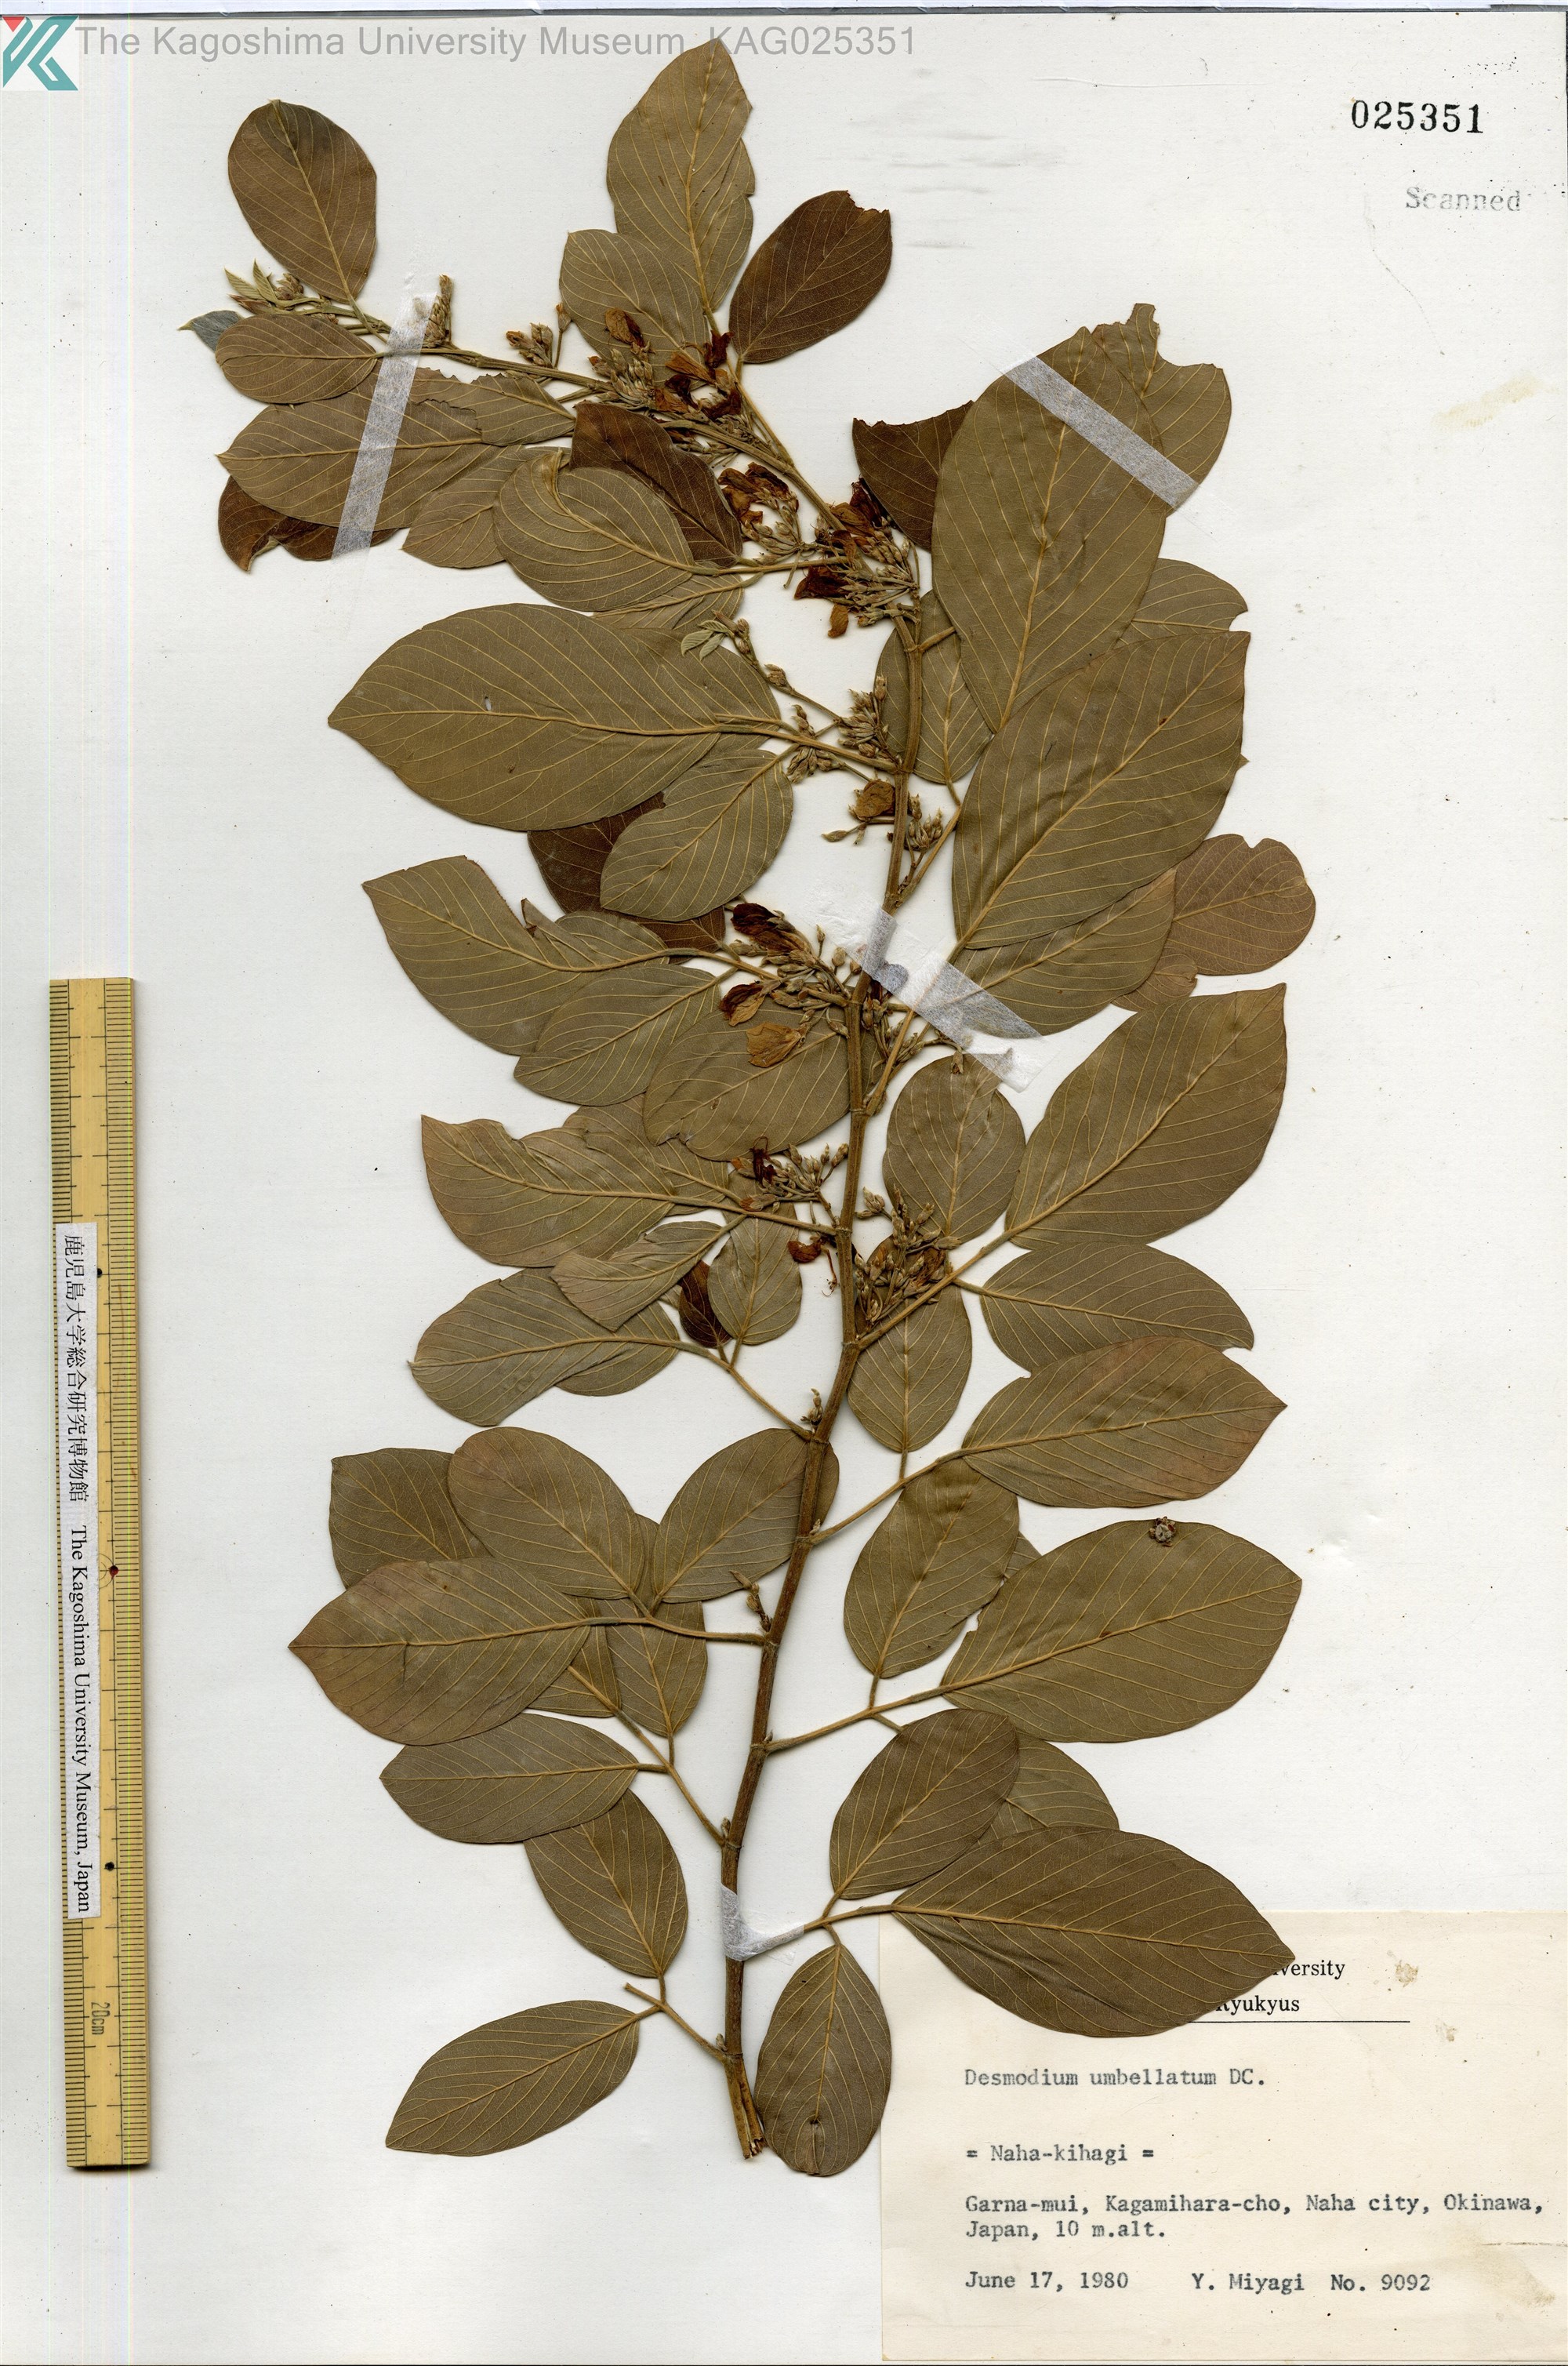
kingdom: Plantae
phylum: Tracheophyta
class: Magnoliopsida
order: Fabales
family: Fabaceae
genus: Desmodium
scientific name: Desmodium umbellatum
